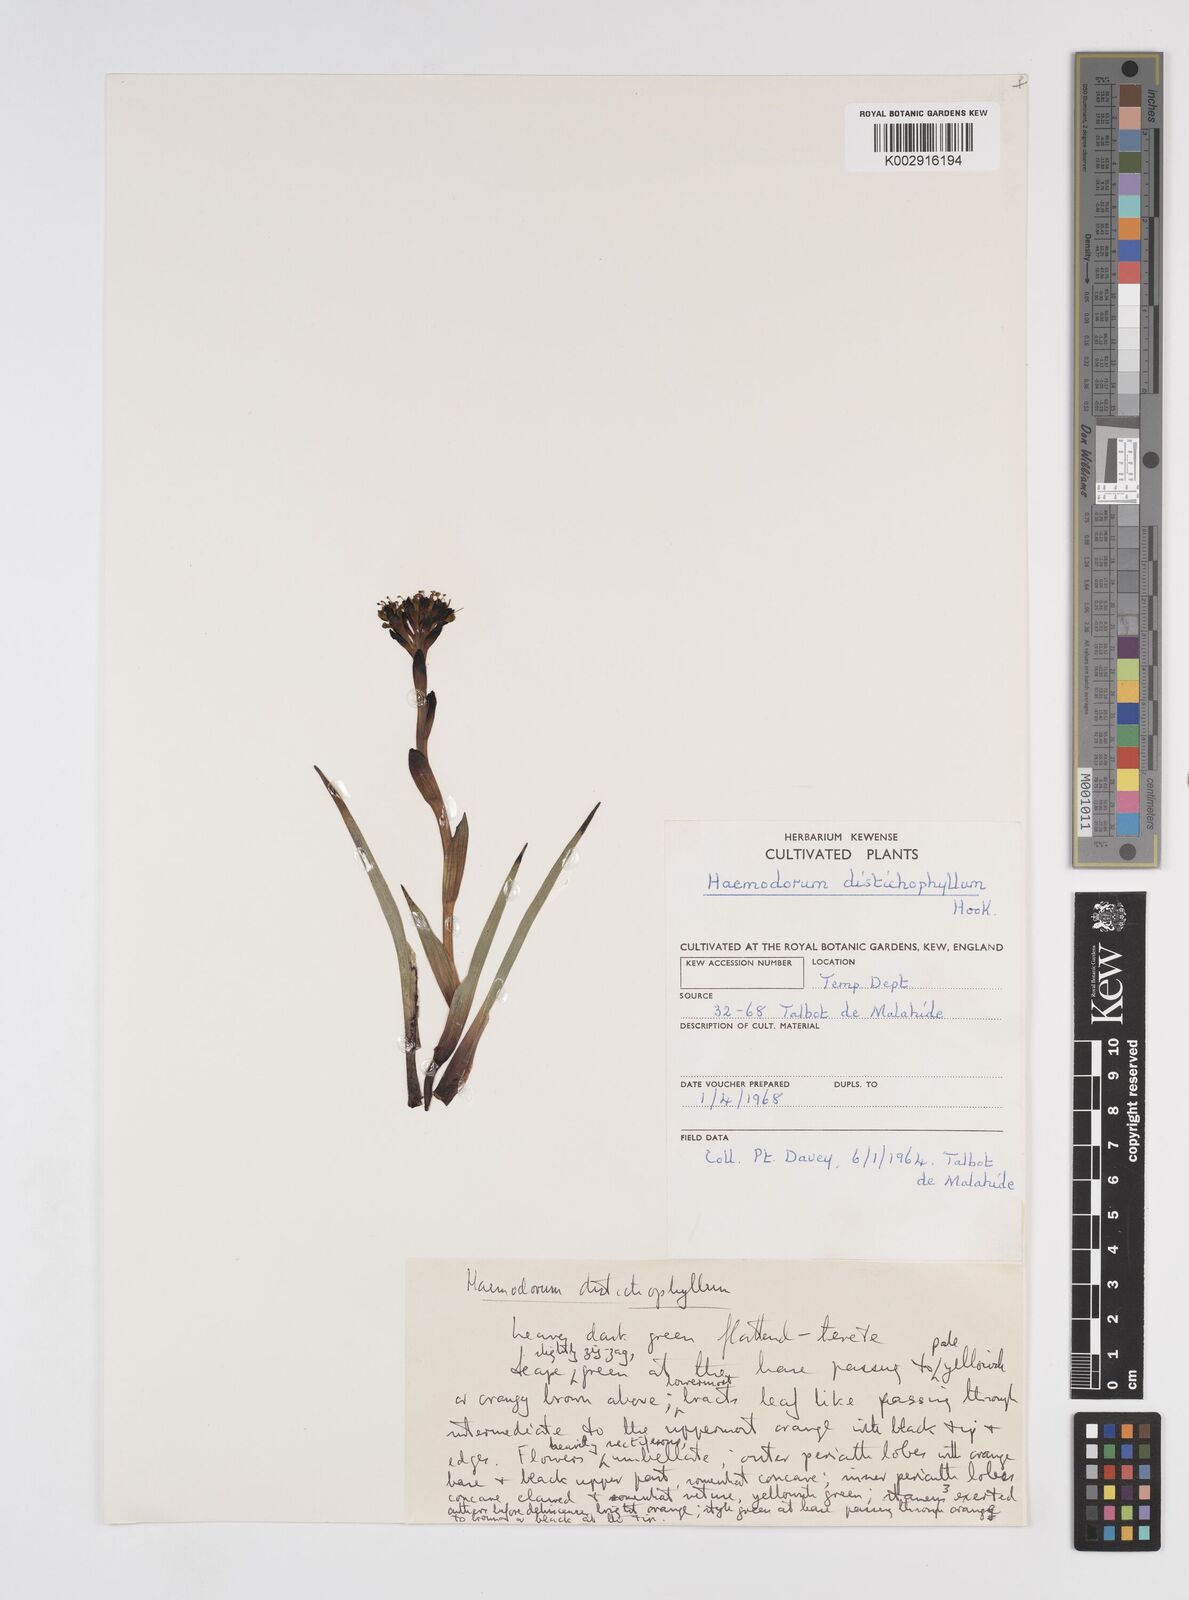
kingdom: Plantae
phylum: Tracheophyta
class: Liliopsida
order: Commelinales
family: Haemodoraceae
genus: Haemodorum
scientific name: Haemodorum distichophyllum
